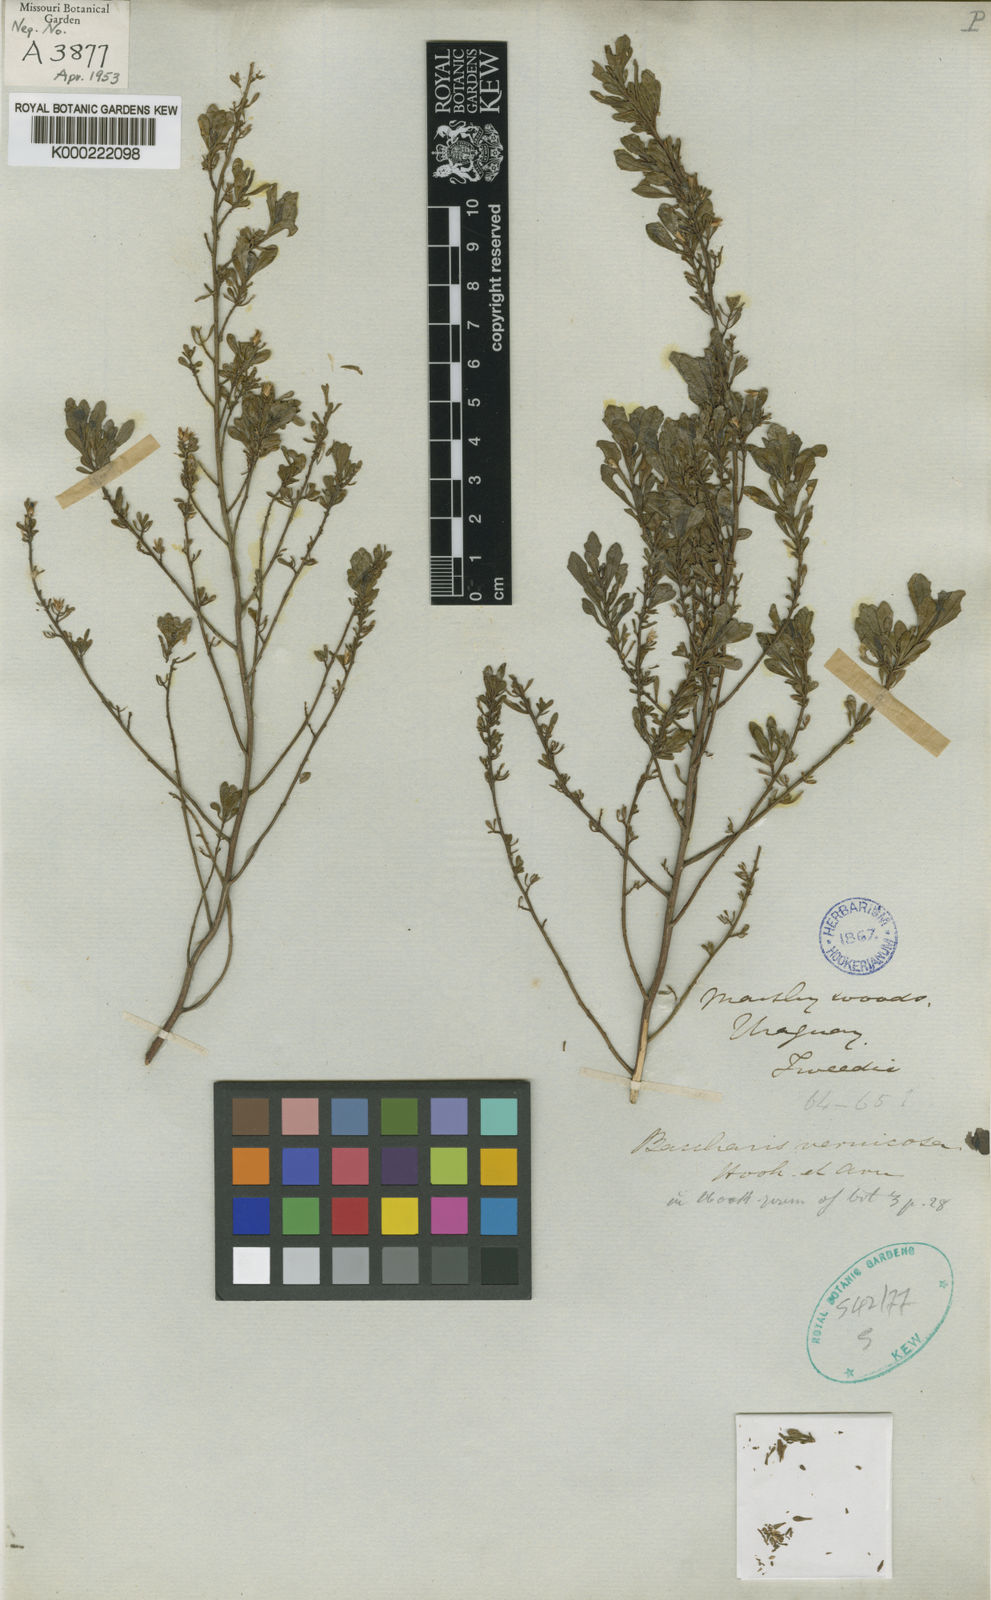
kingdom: Plantae
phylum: Tracheophyta
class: Magnoliopsida
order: Asterales
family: Asteraceae
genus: Baccharis
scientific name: Baccharis vernicosa
